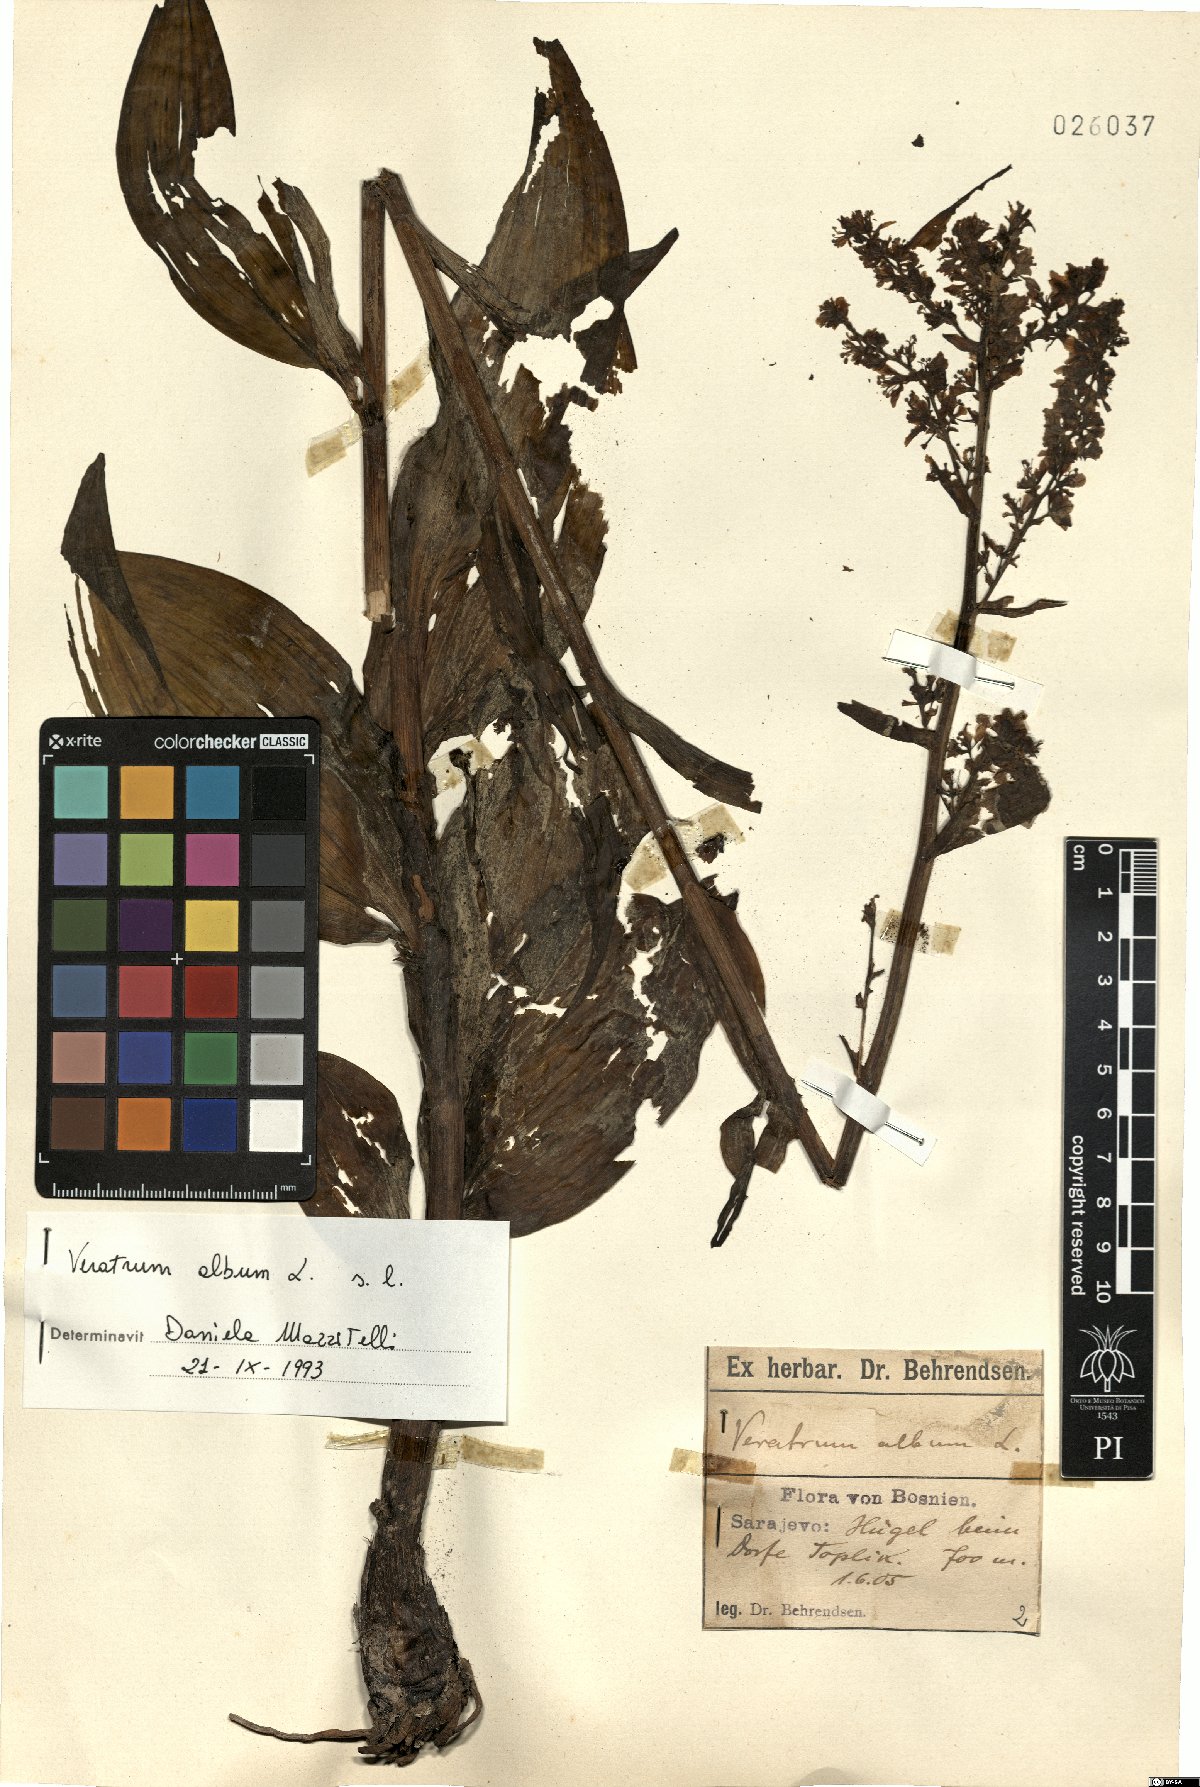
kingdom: Plantae
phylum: Tracheophyta
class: Liliopsida
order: Liliales
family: Melanthiaceae
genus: Veratrum
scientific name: Veratrum album
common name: White veratrum
